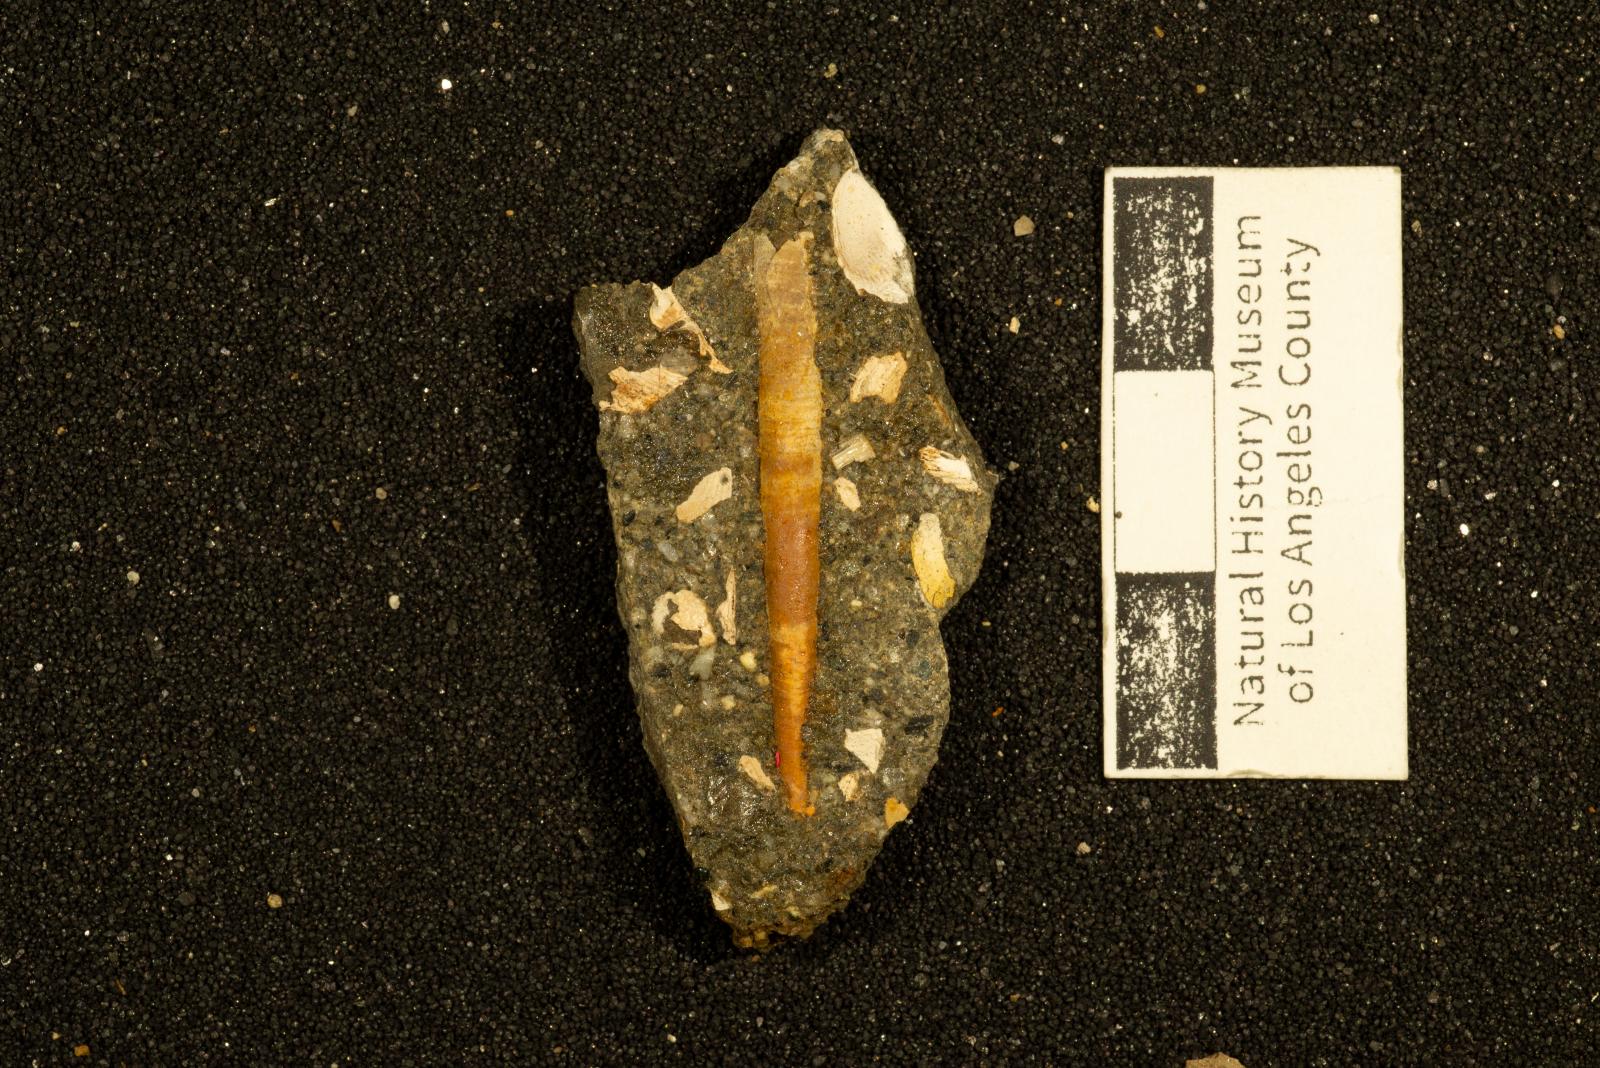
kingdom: Animalia
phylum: Mollusca
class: Scaphopoda
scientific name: Scaphopoda
